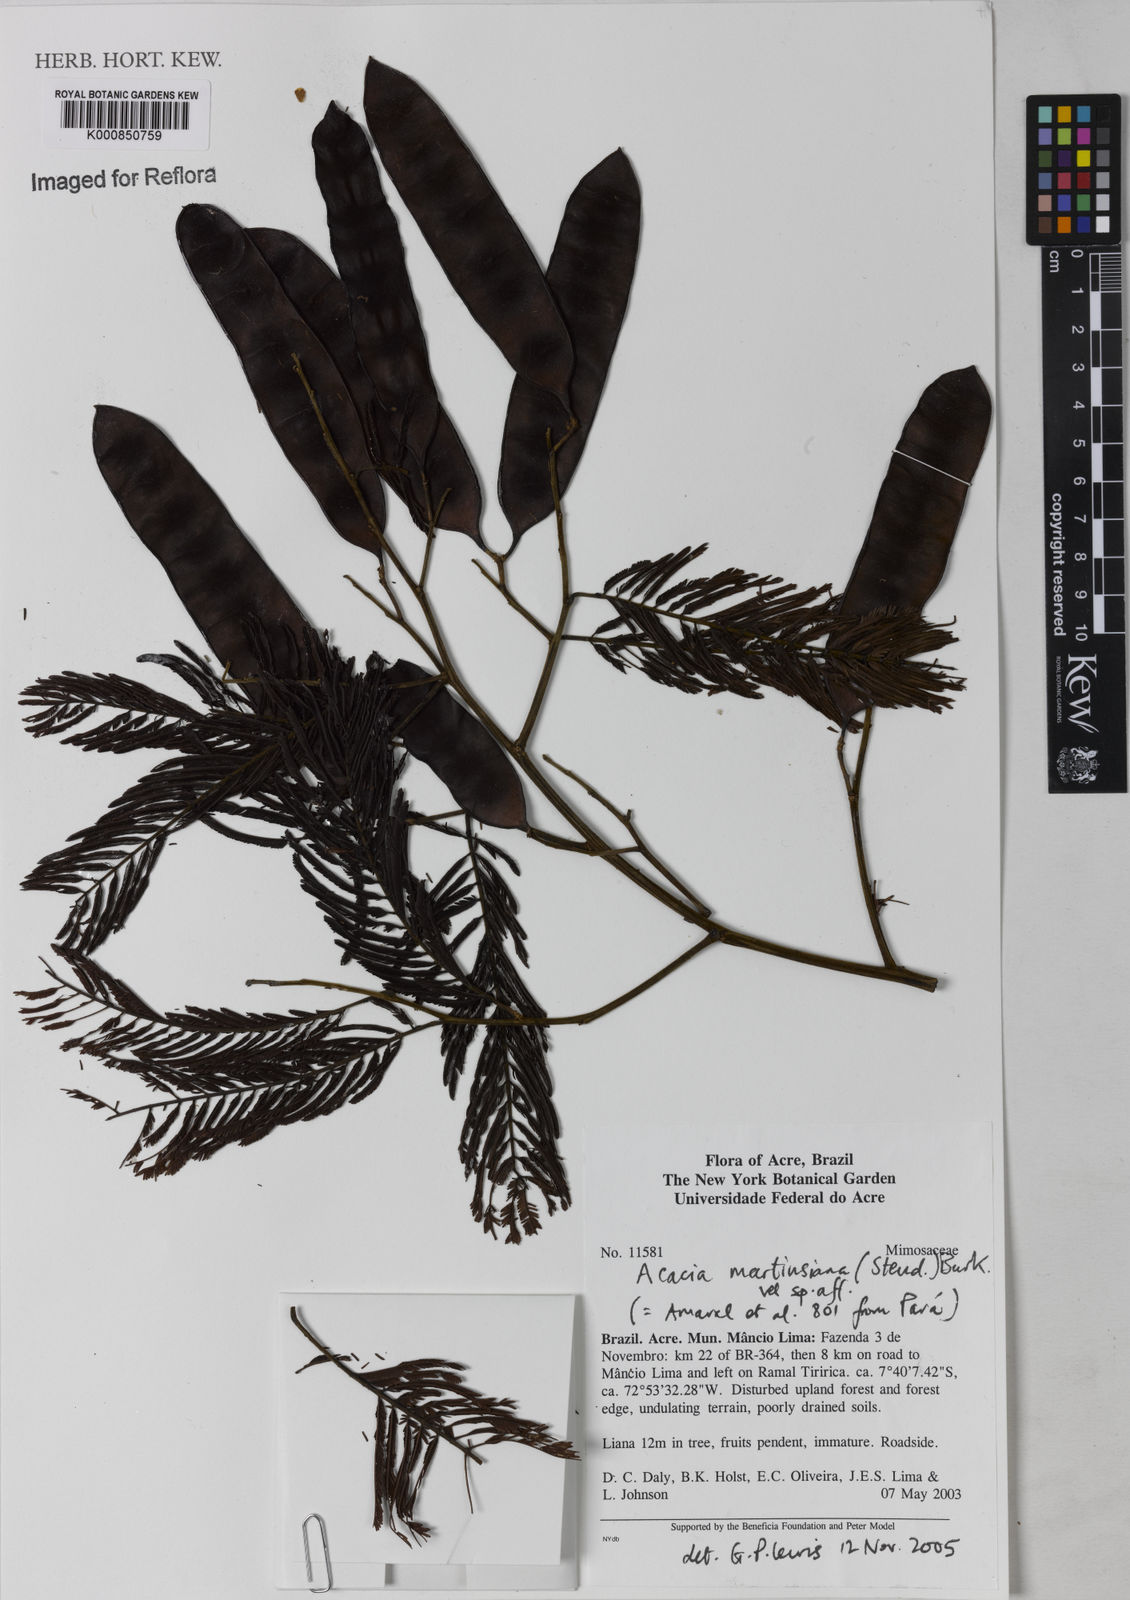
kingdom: Plantae
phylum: Tracheophyta
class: Magnoliopsida
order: Fabales
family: Fabaceae
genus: Senegalia
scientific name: Senegalia martiusiana
